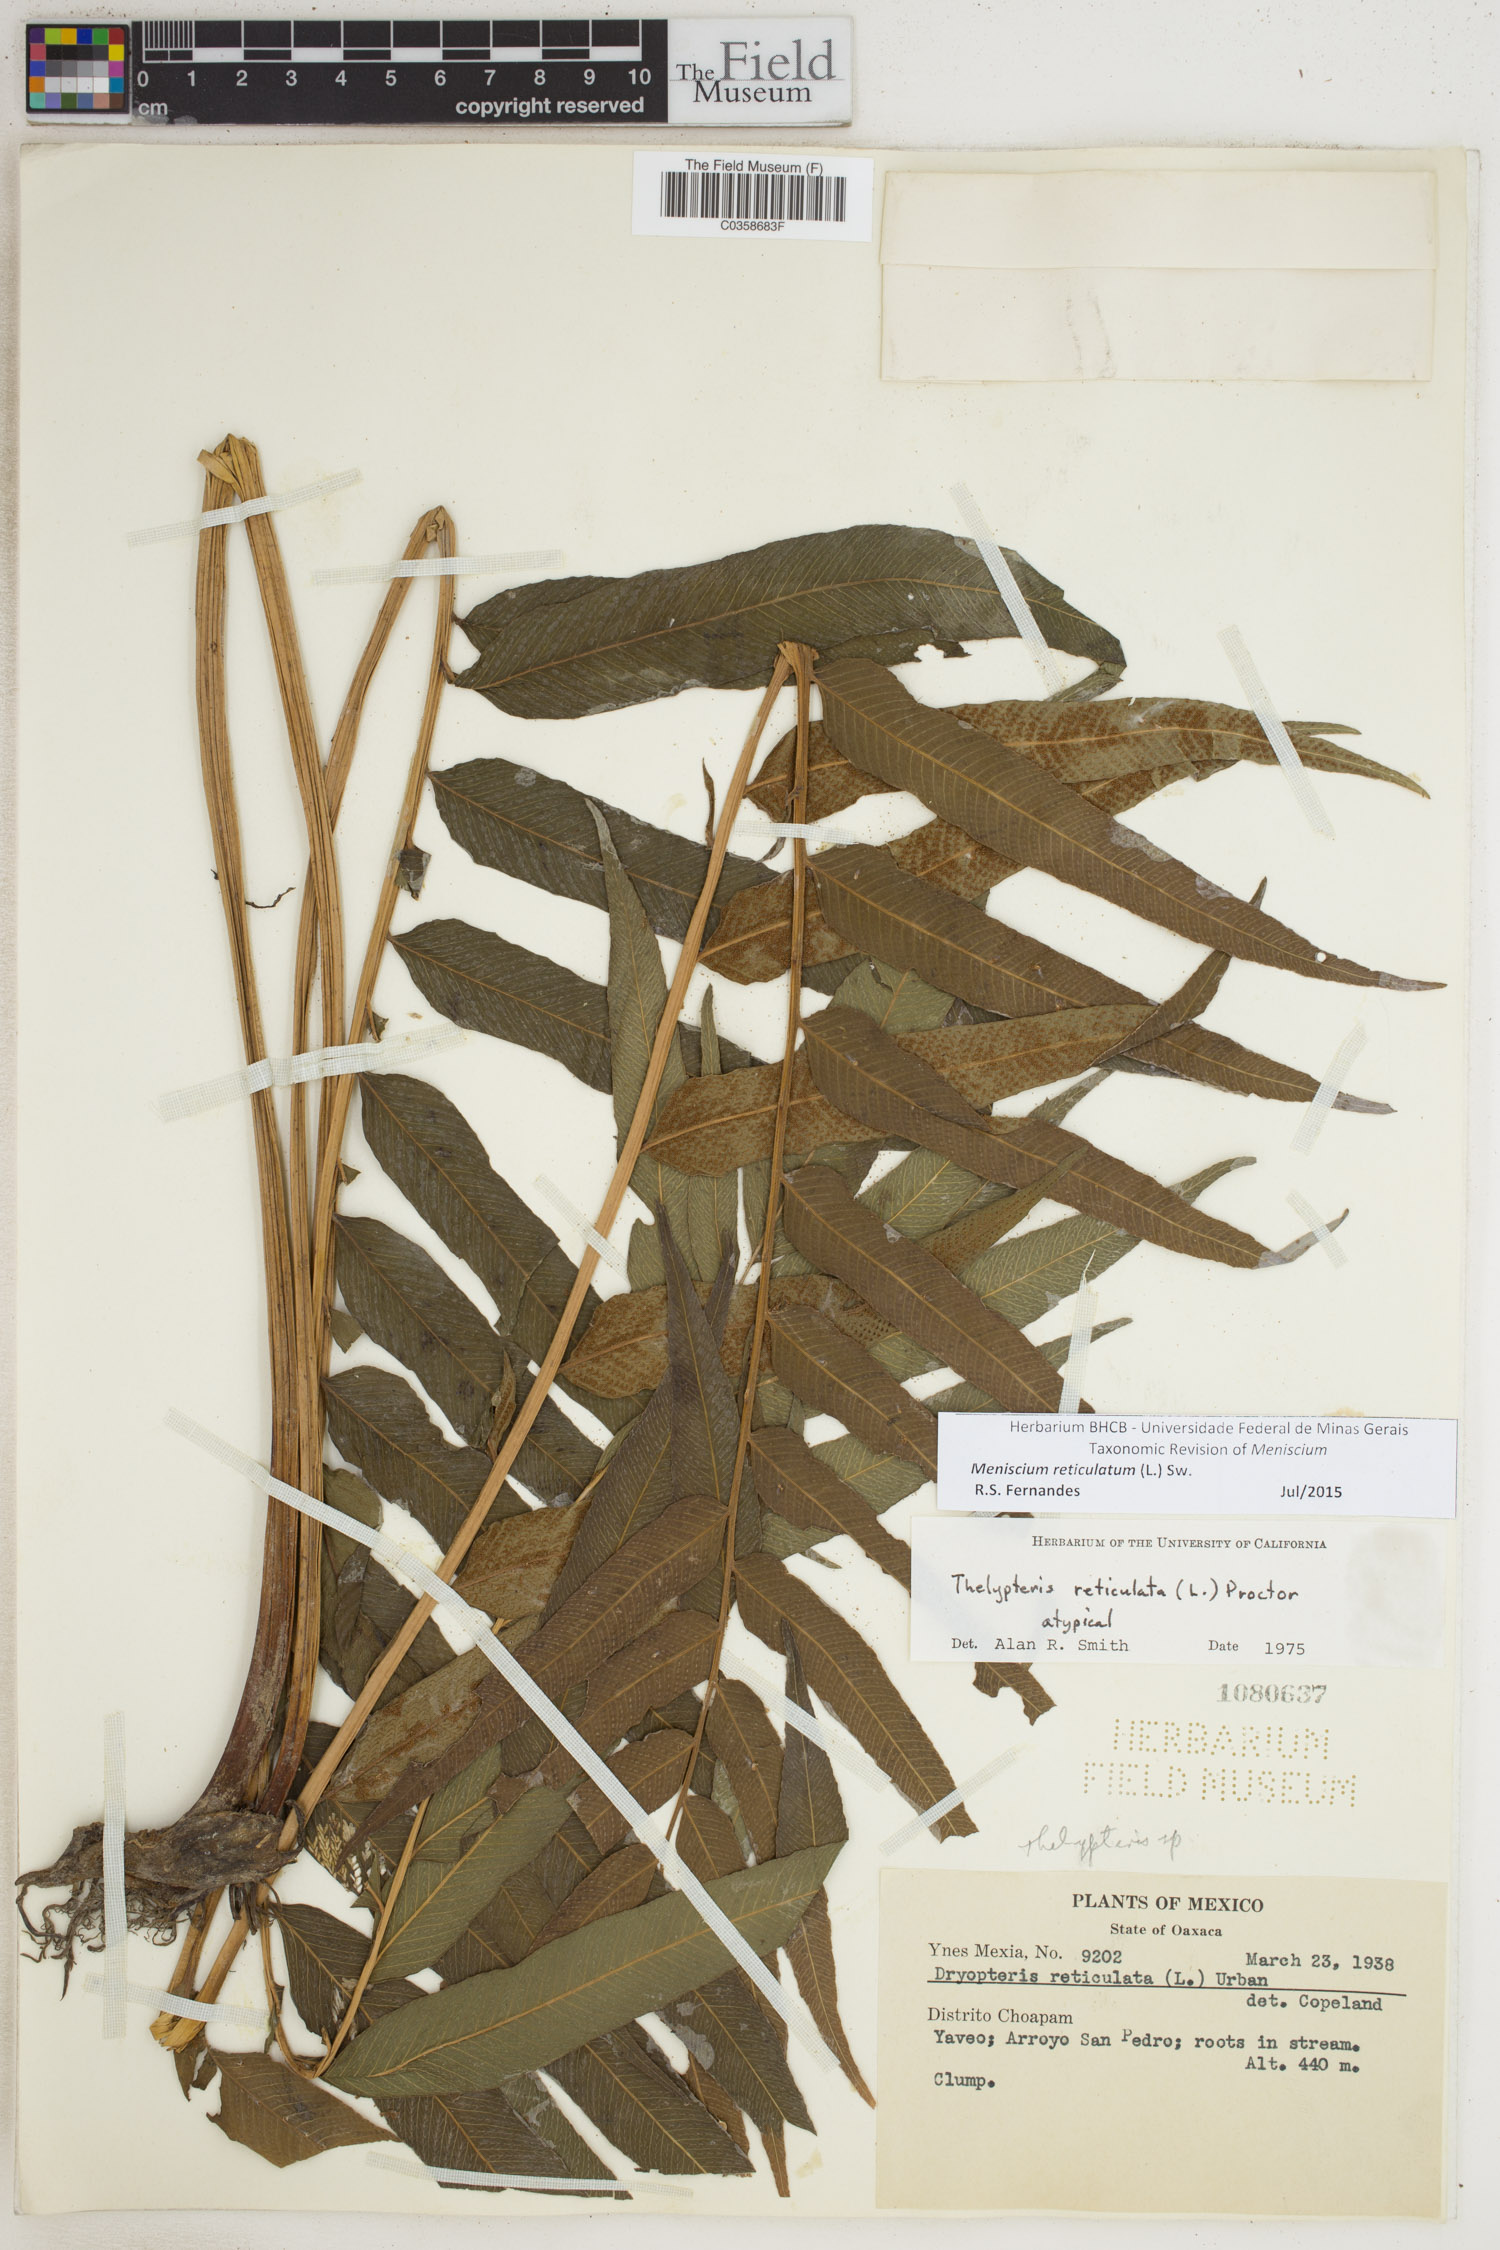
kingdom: Plantae
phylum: Tracheophyta
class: Polypodiopsida
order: Polypodiales
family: Thelypteridaceae
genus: Meniscium
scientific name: Meniscium reticulatum
